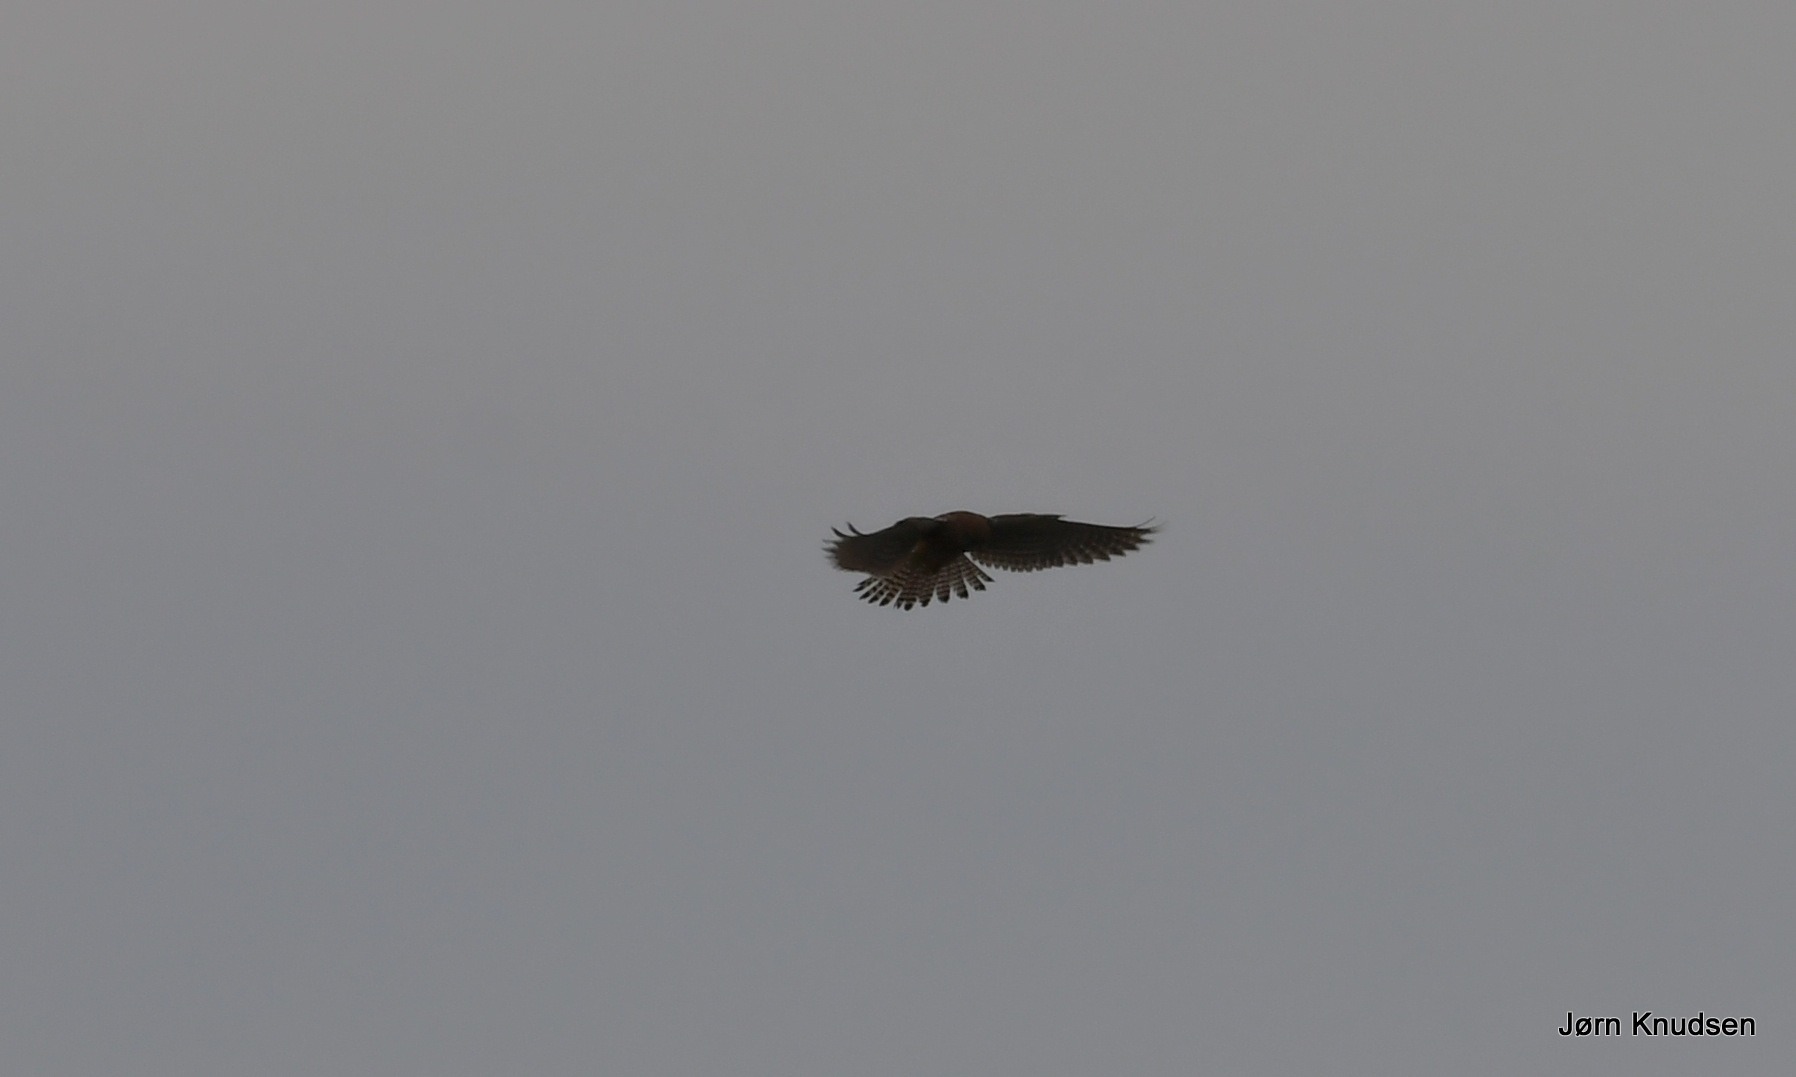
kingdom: Animalia
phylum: Chordata
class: Aves
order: Falconiformes
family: Falconidae
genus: Falco
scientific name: Falco tinnunculus
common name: Tårnfalk
